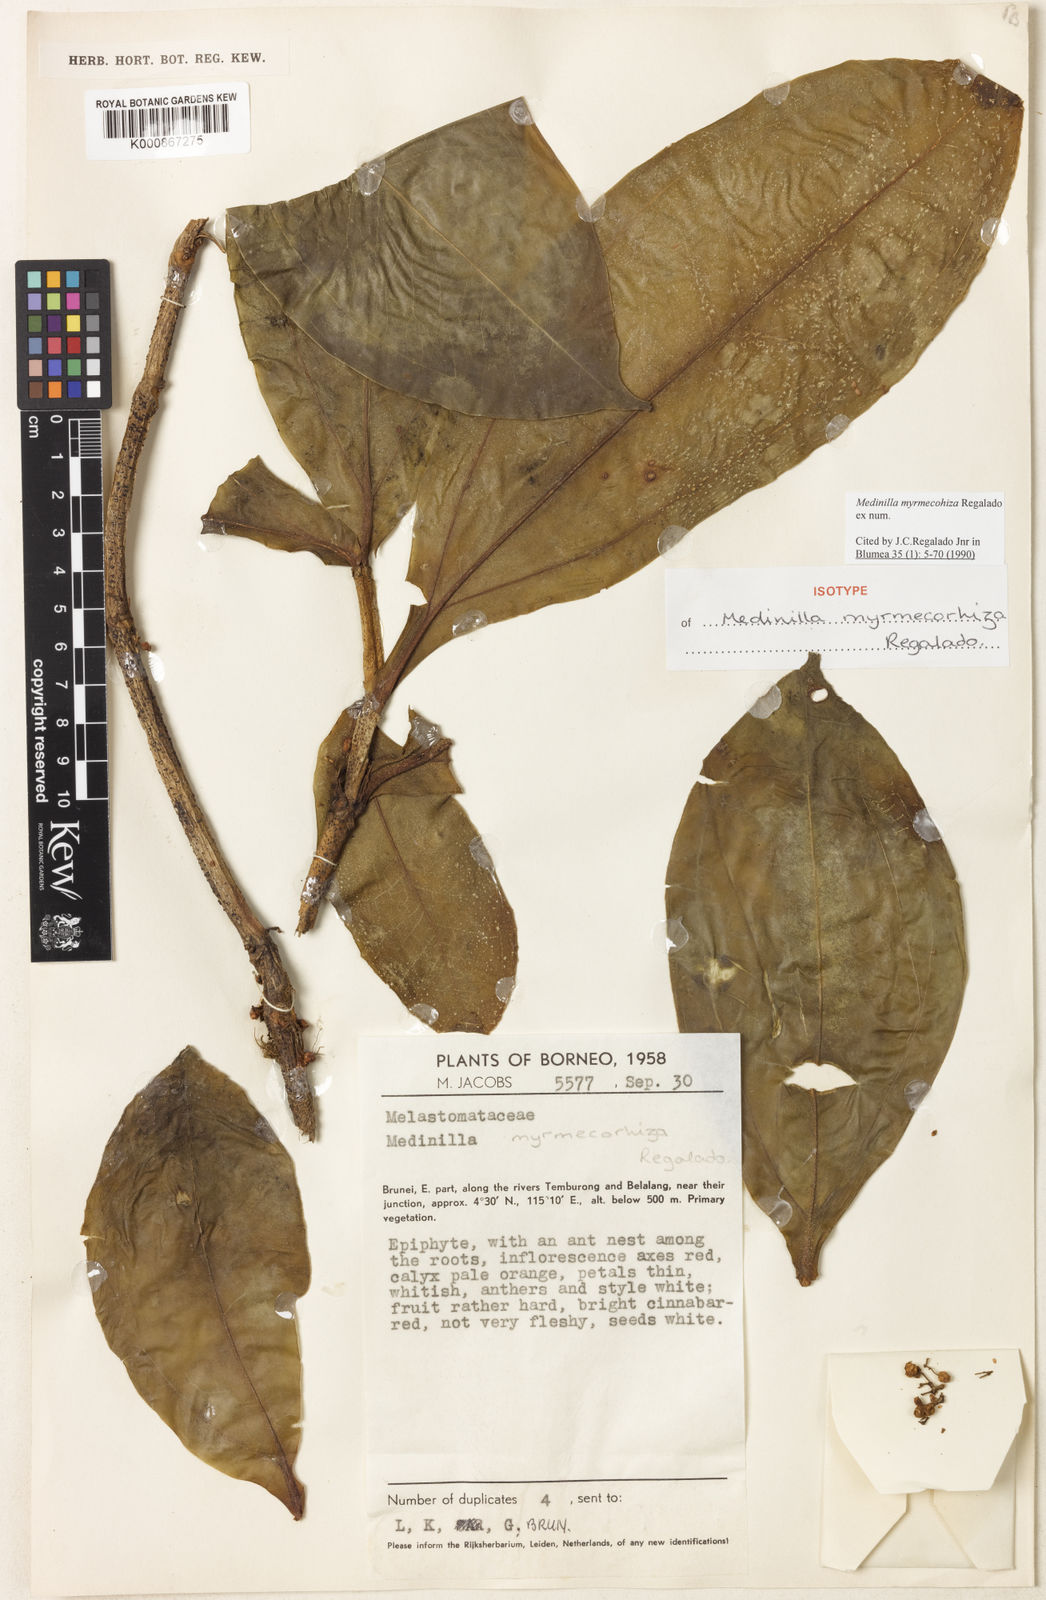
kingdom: Plantae
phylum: Tracheophyta
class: Magnoliopsida
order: Myrtales
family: Melastomataceae
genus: Medinilla
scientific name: Medinilla sessilifolia
